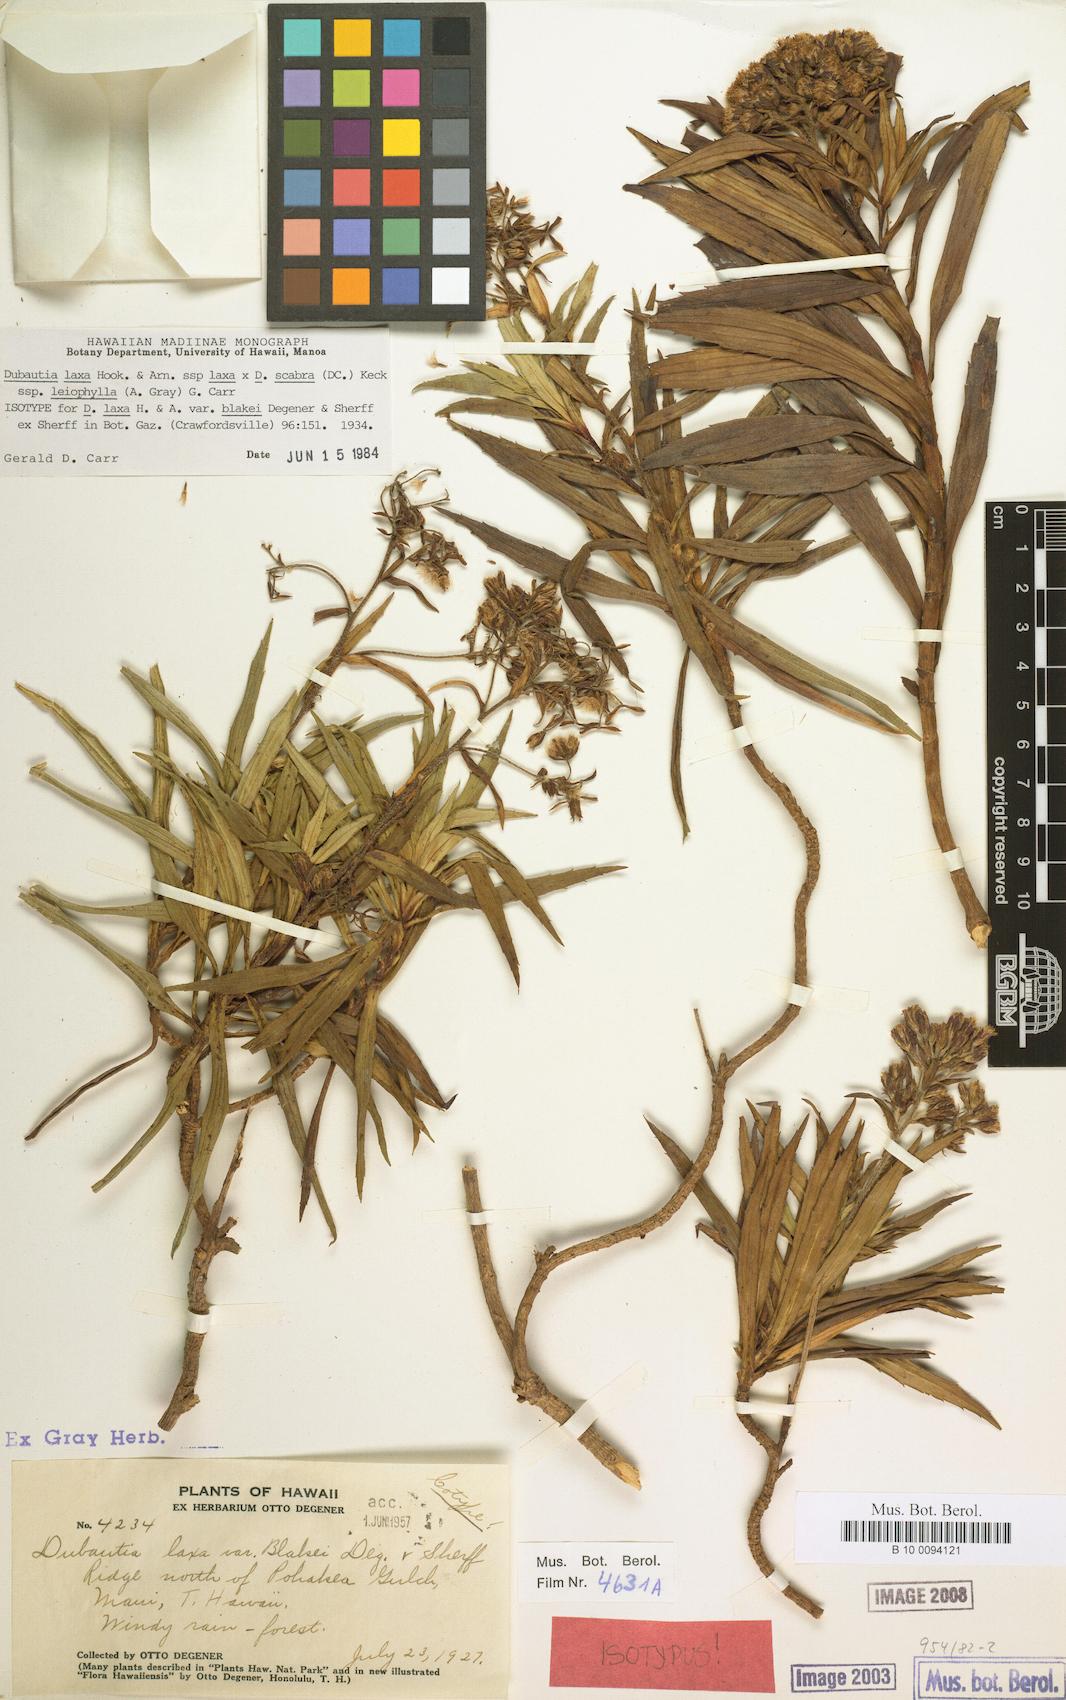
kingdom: Plantae
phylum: Tracheophyta
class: Magnoliopsida
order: Asterales
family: Asteraceae
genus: Dubautia
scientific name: Dubautia laxa
